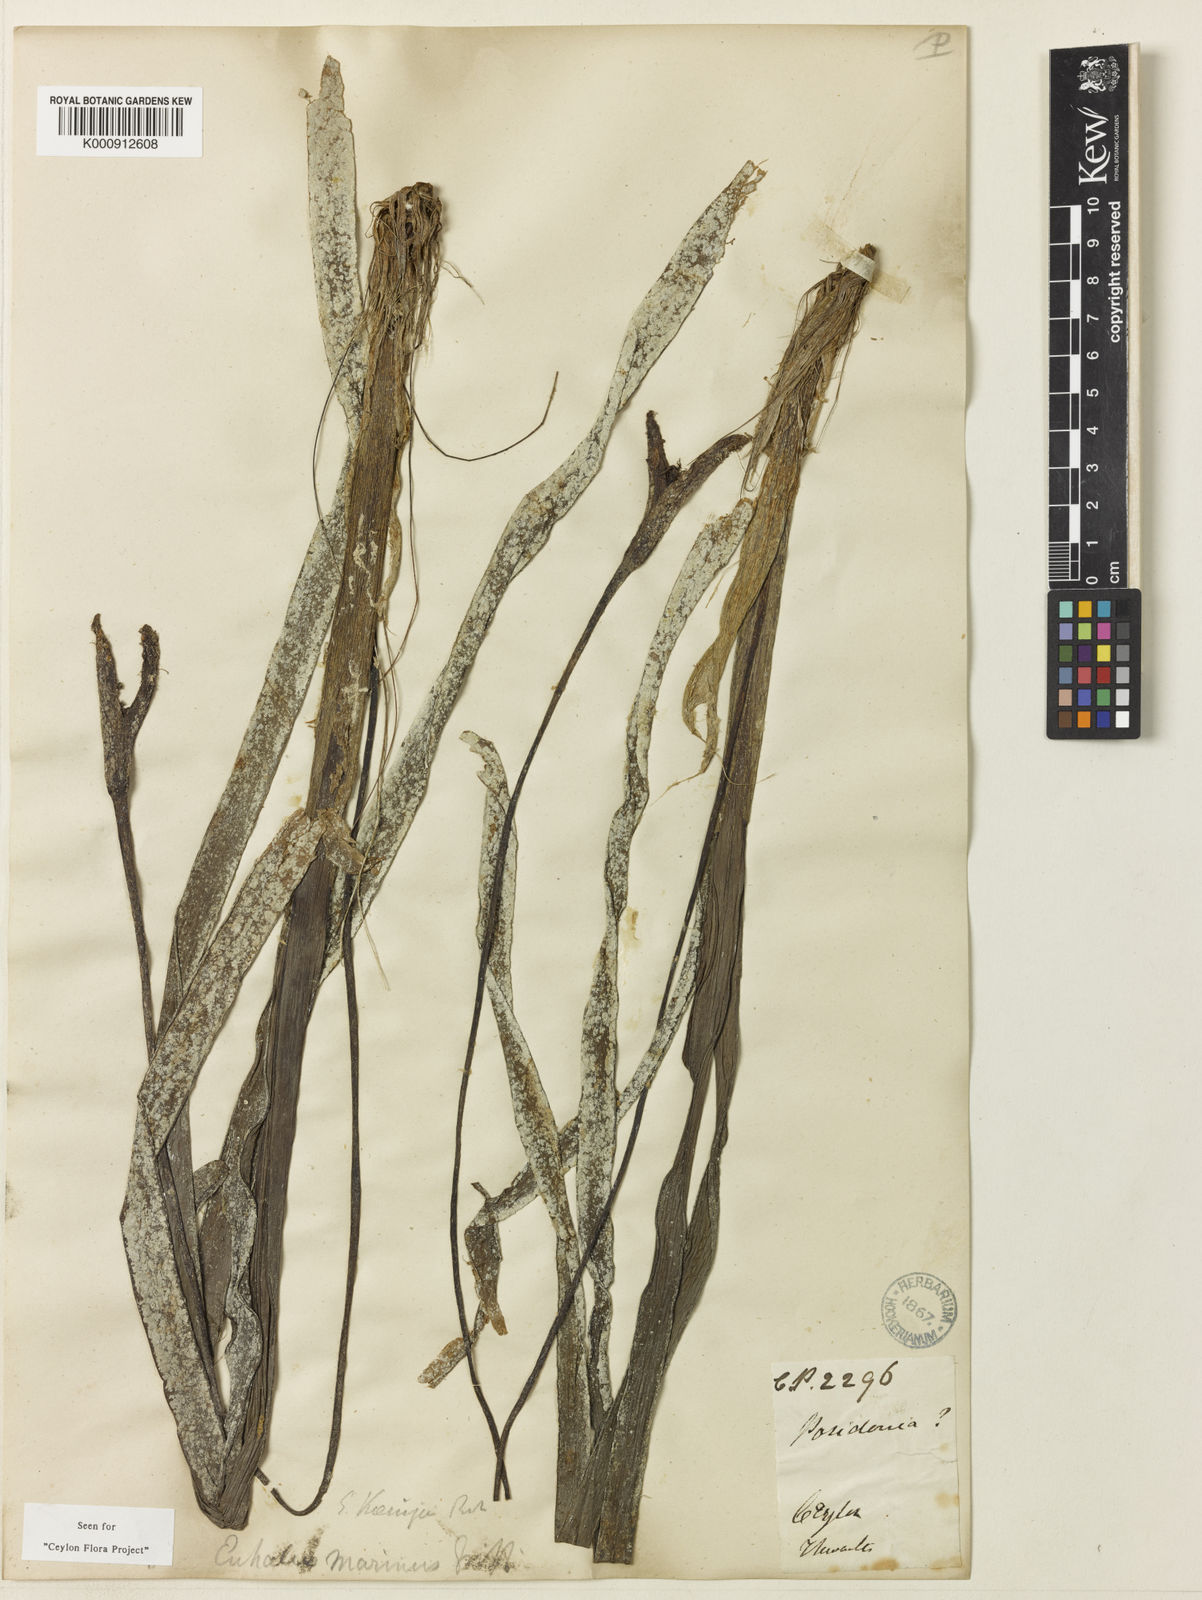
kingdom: Plantae
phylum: Tracheophyta
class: Liliopsida
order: Alismatales
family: Hydrocharitaceae
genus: Enhalus
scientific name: Enhalus acoroides
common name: Species code: ea
